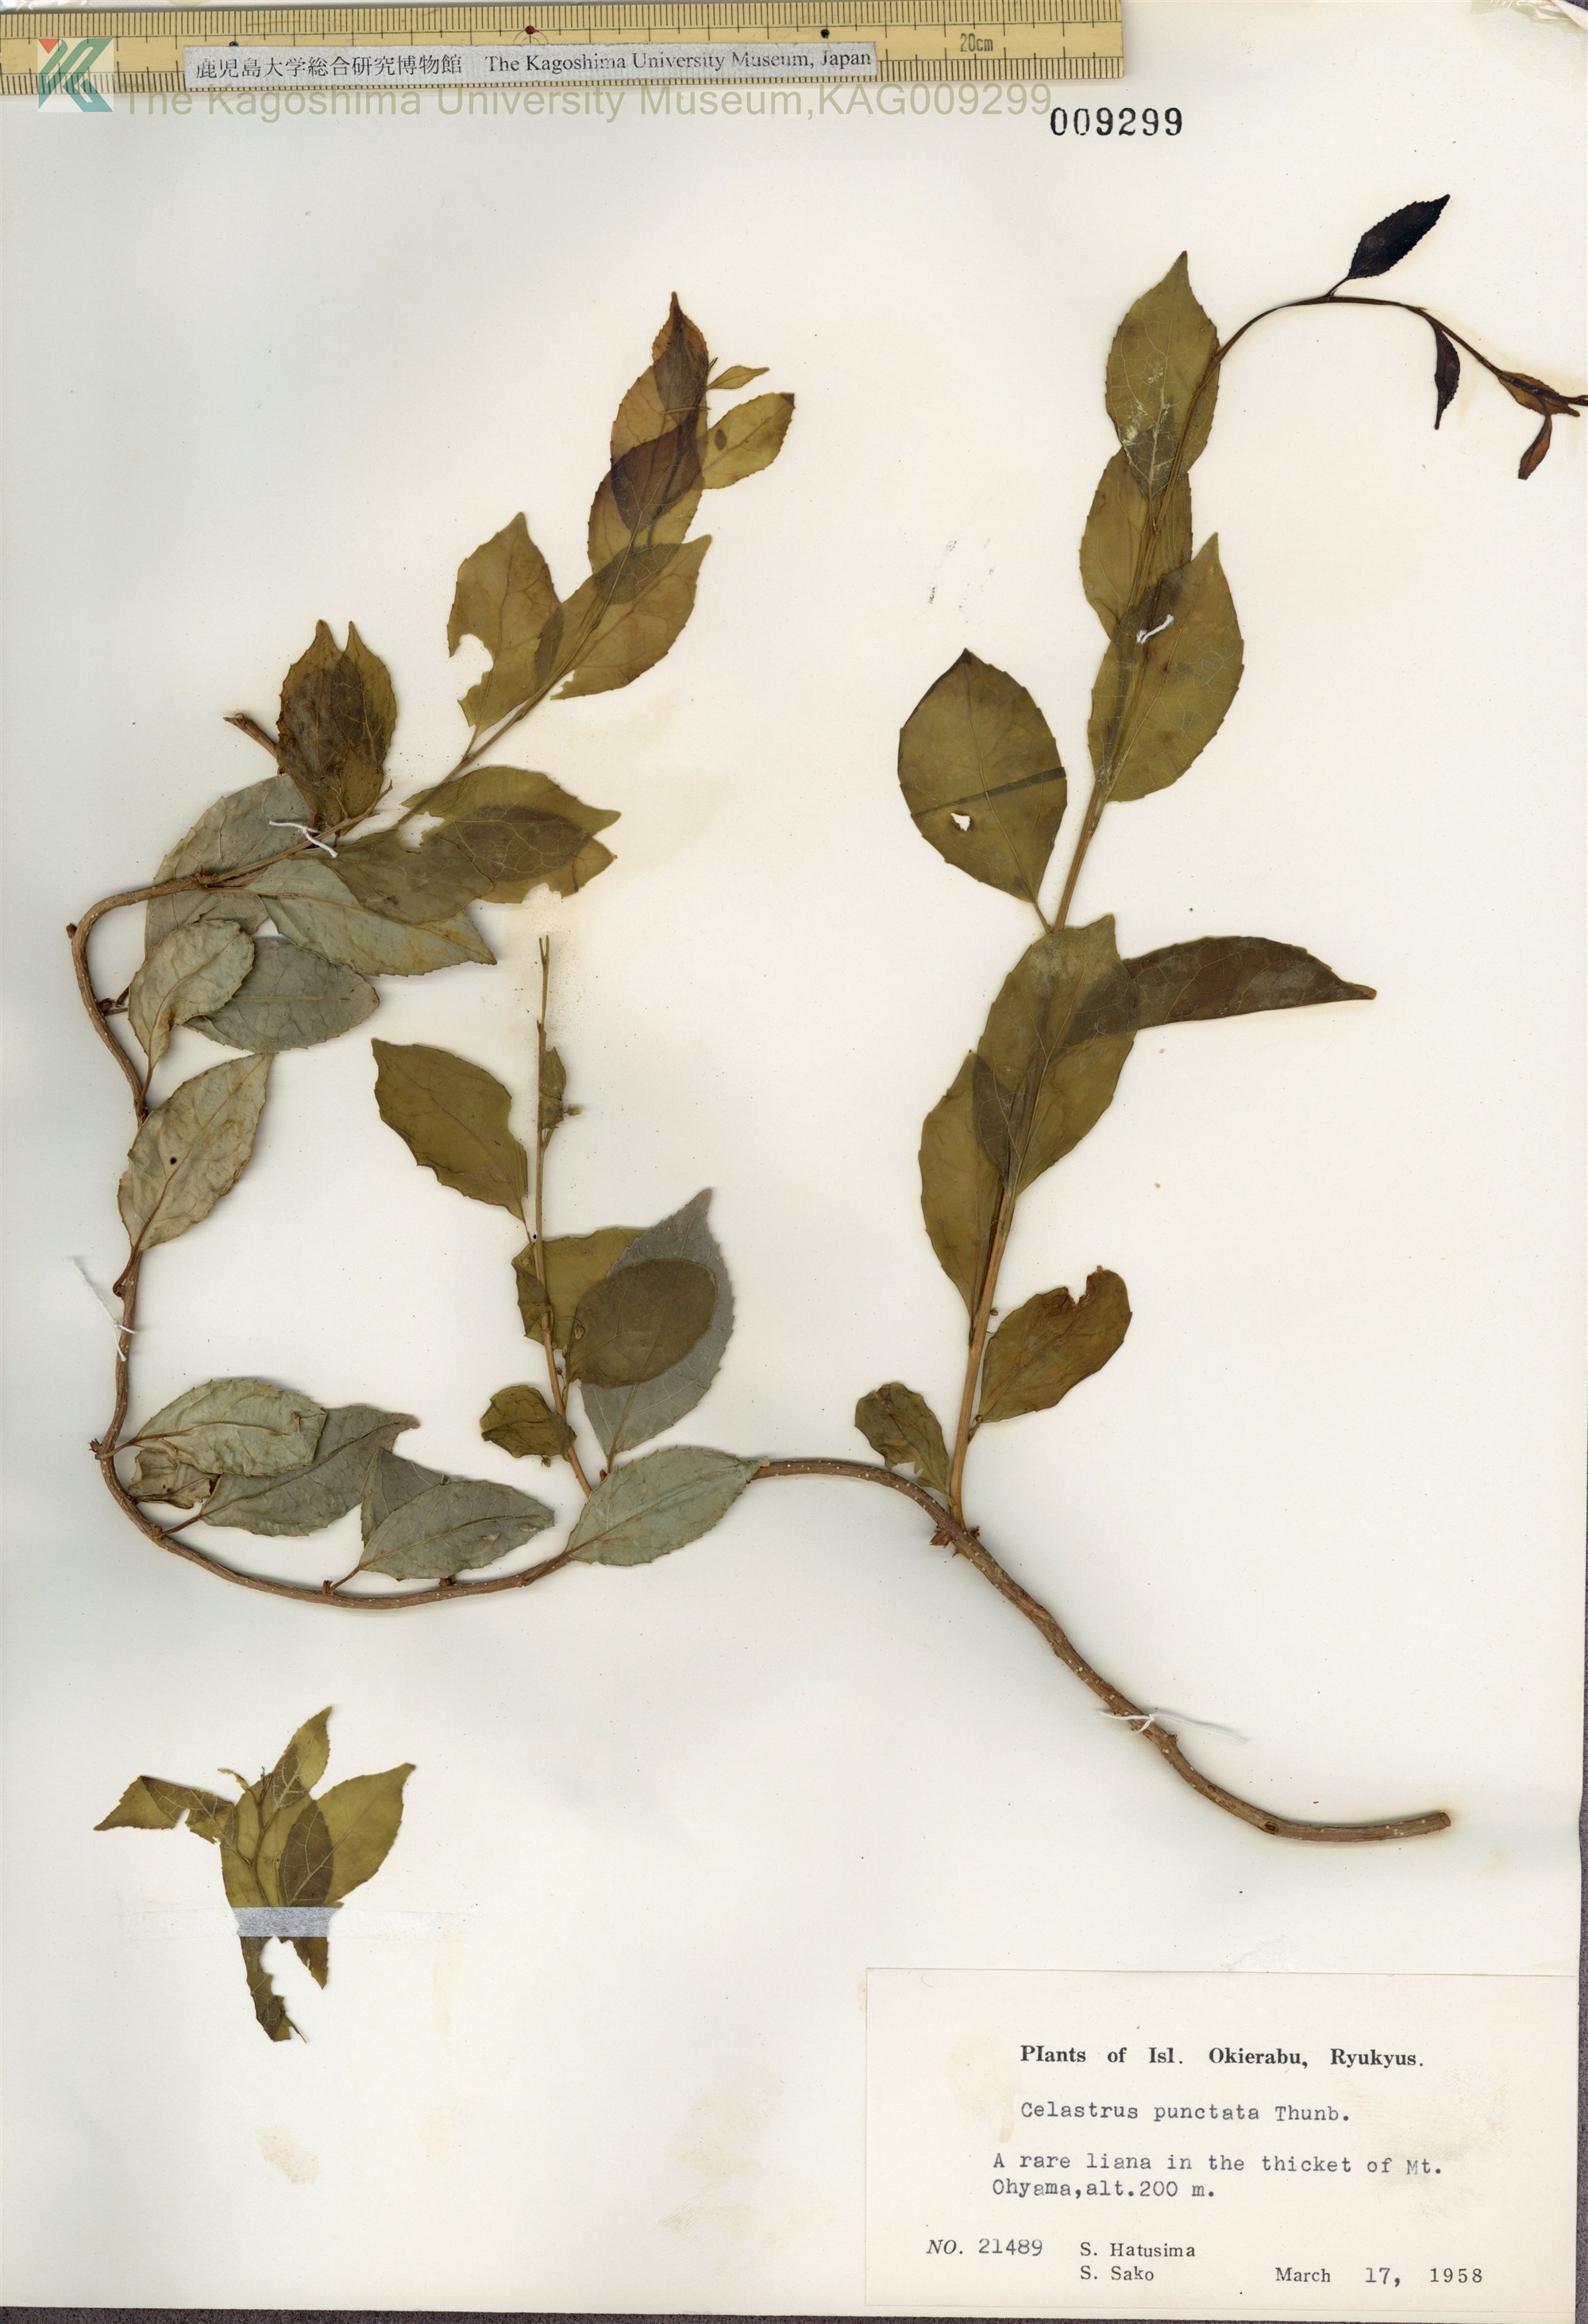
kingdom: Plantae
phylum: Tracheophyta
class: Magnoliopsida
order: Celastrales
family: Celastraceae
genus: Celastrus
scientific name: Celastrus punctatus
